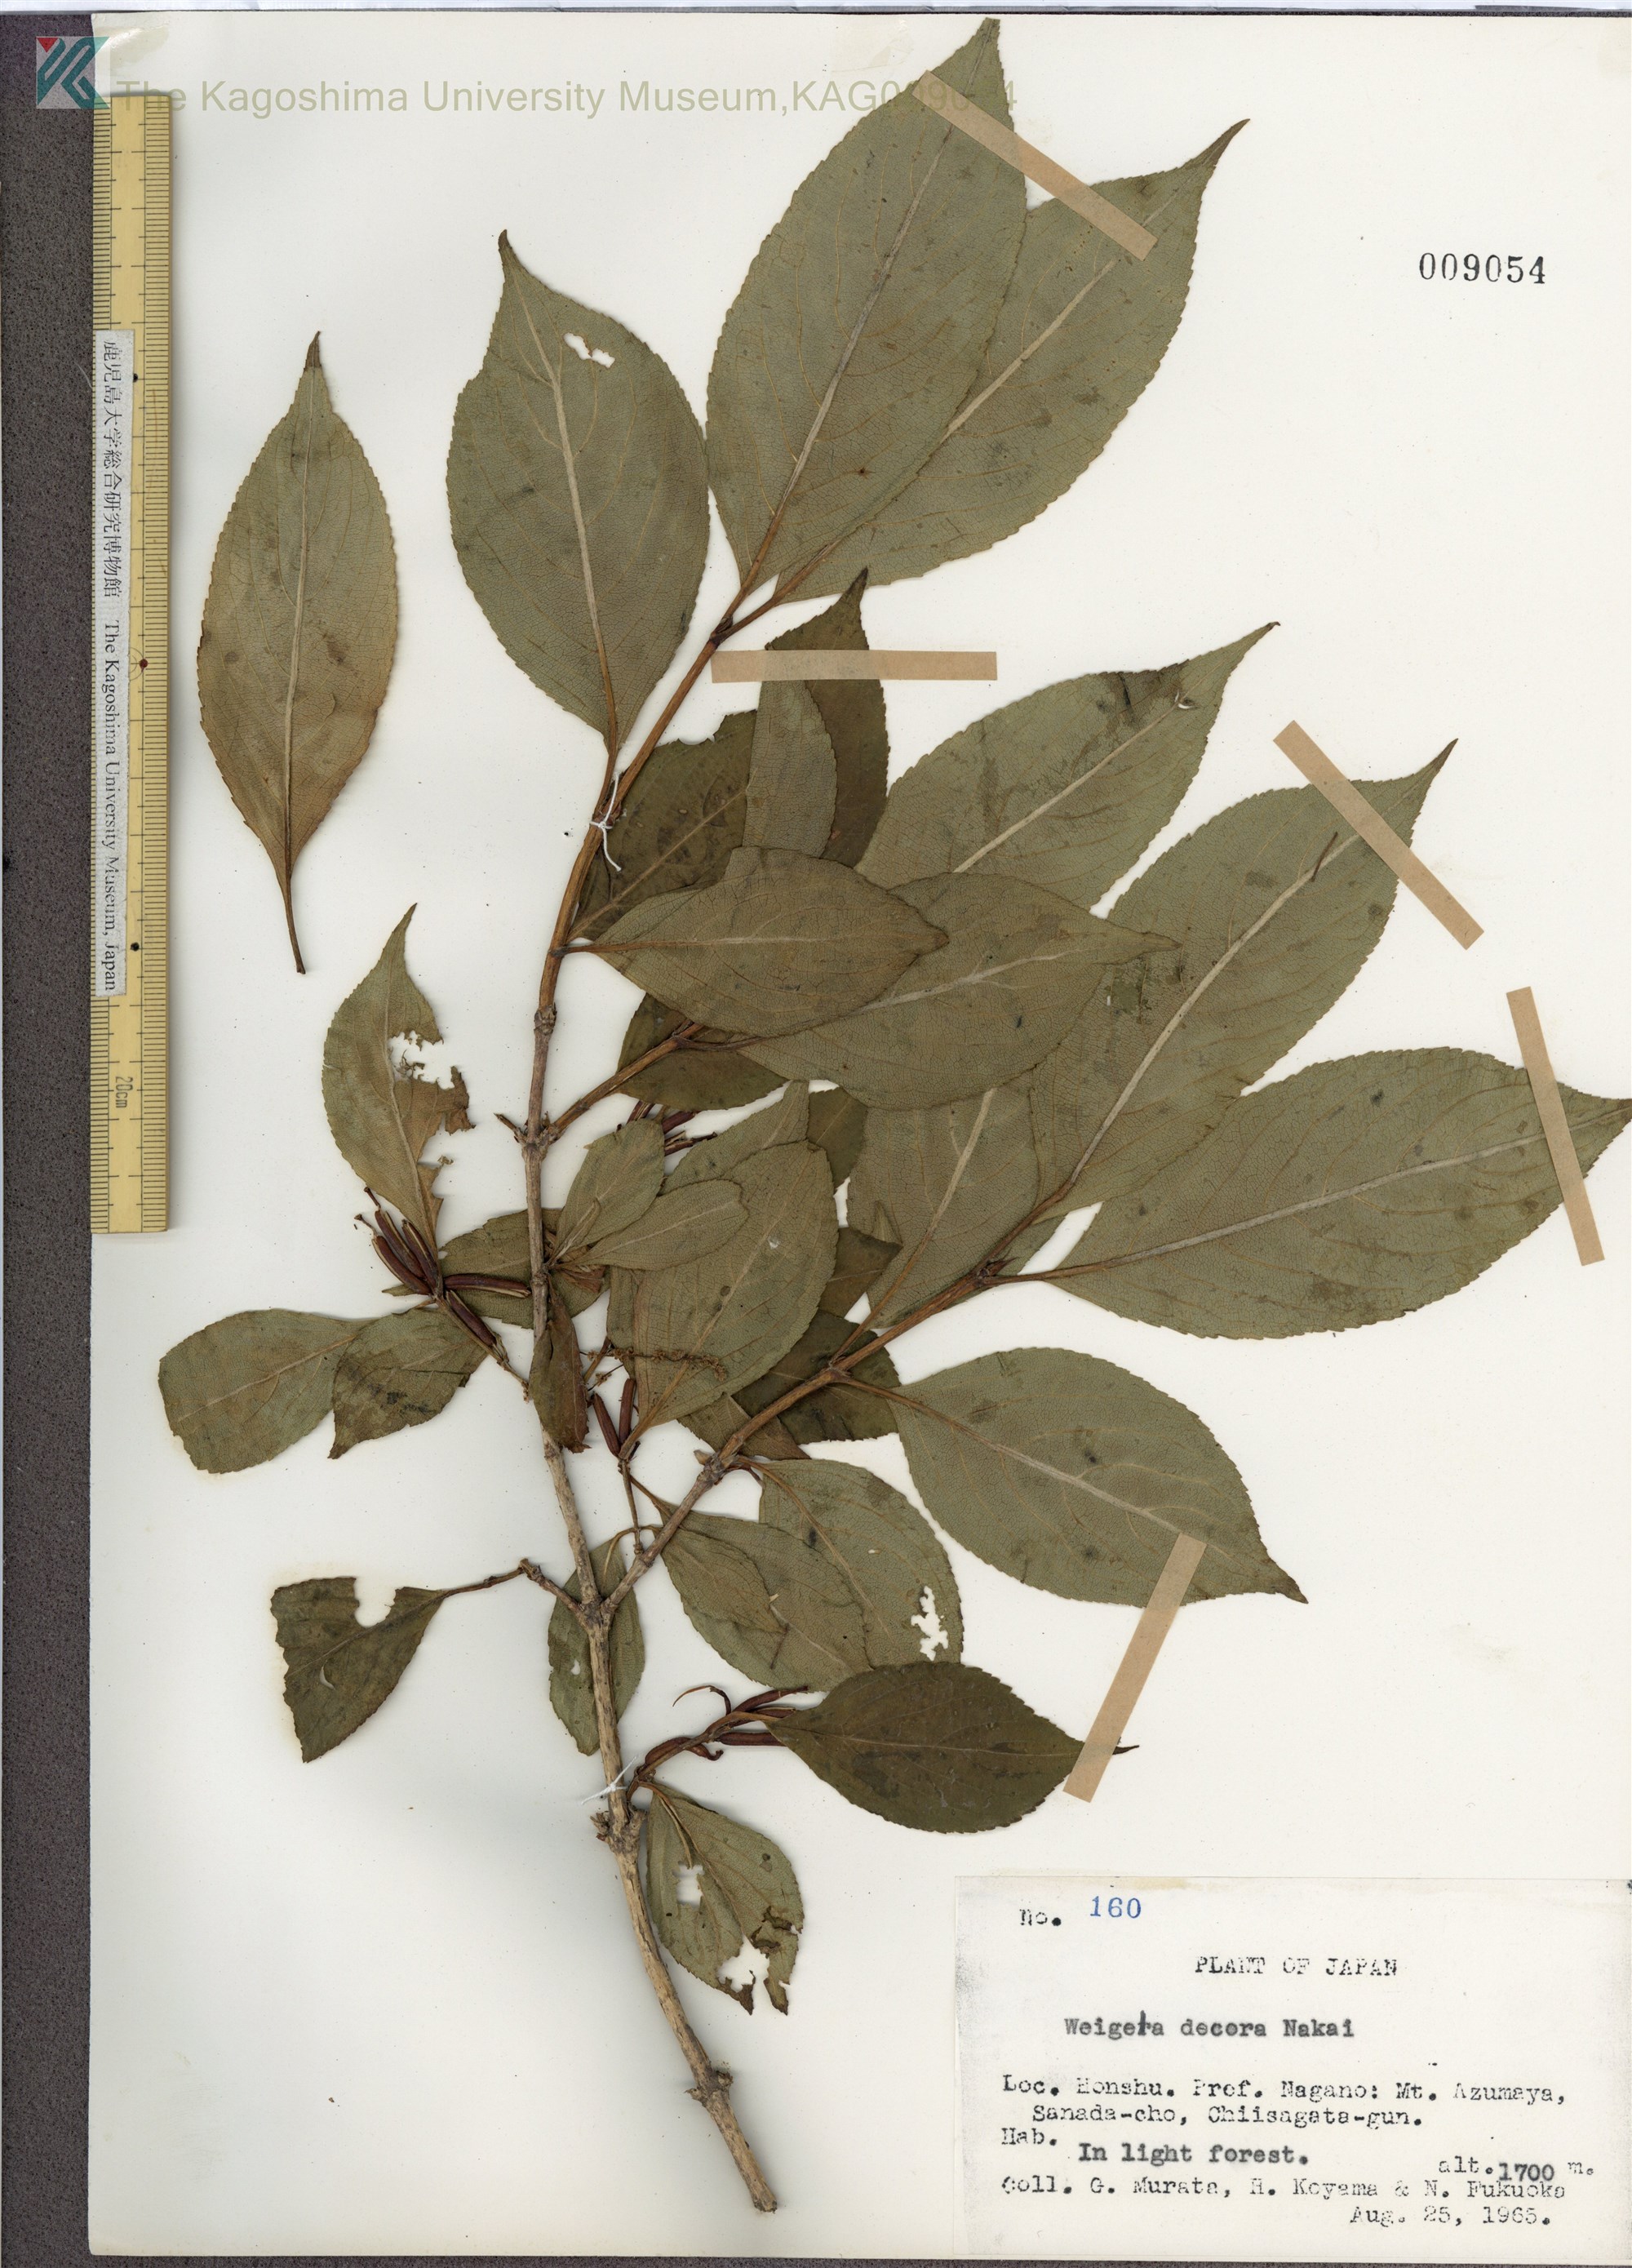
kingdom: Plantae
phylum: Tracheophyta
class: Magnoliopsida
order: Dipsacales
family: Caprifoliaceae
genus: Weigela
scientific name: Weigela decora
